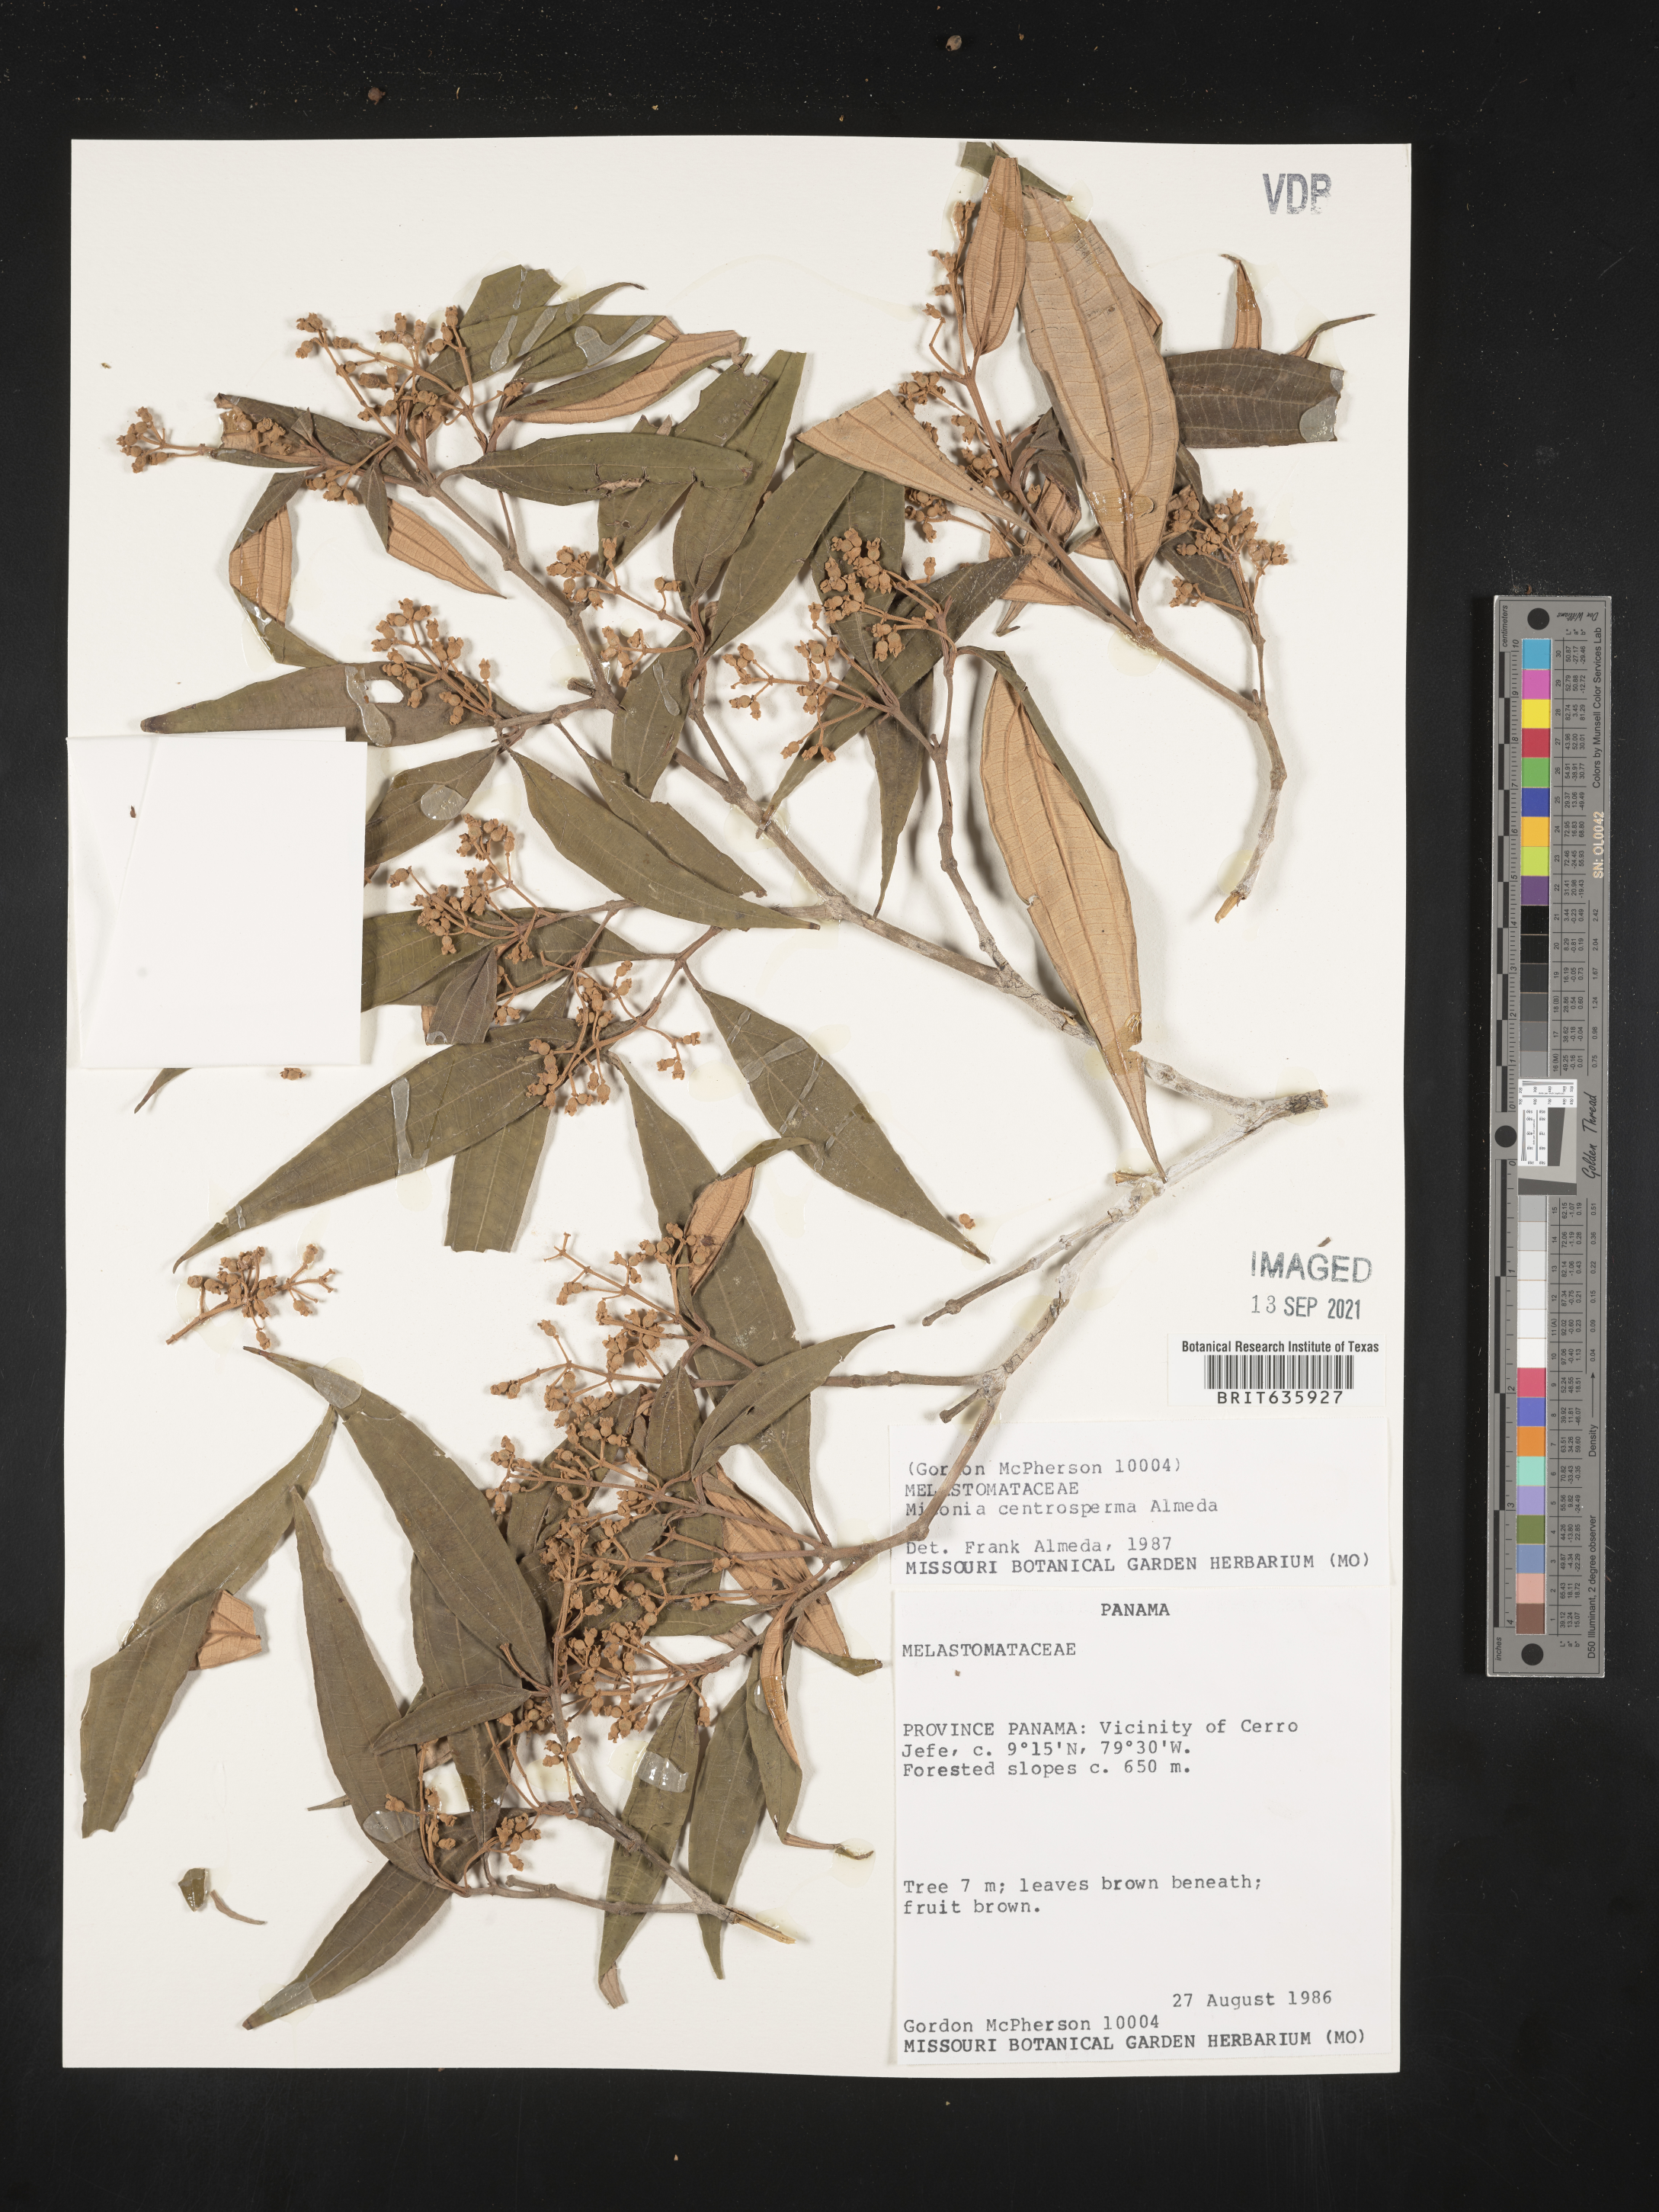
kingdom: Plantae
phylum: Tracheophyta
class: Magnoliopsida
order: Myrtales
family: Melastomataceae
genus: Miconia
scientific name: Miconia
